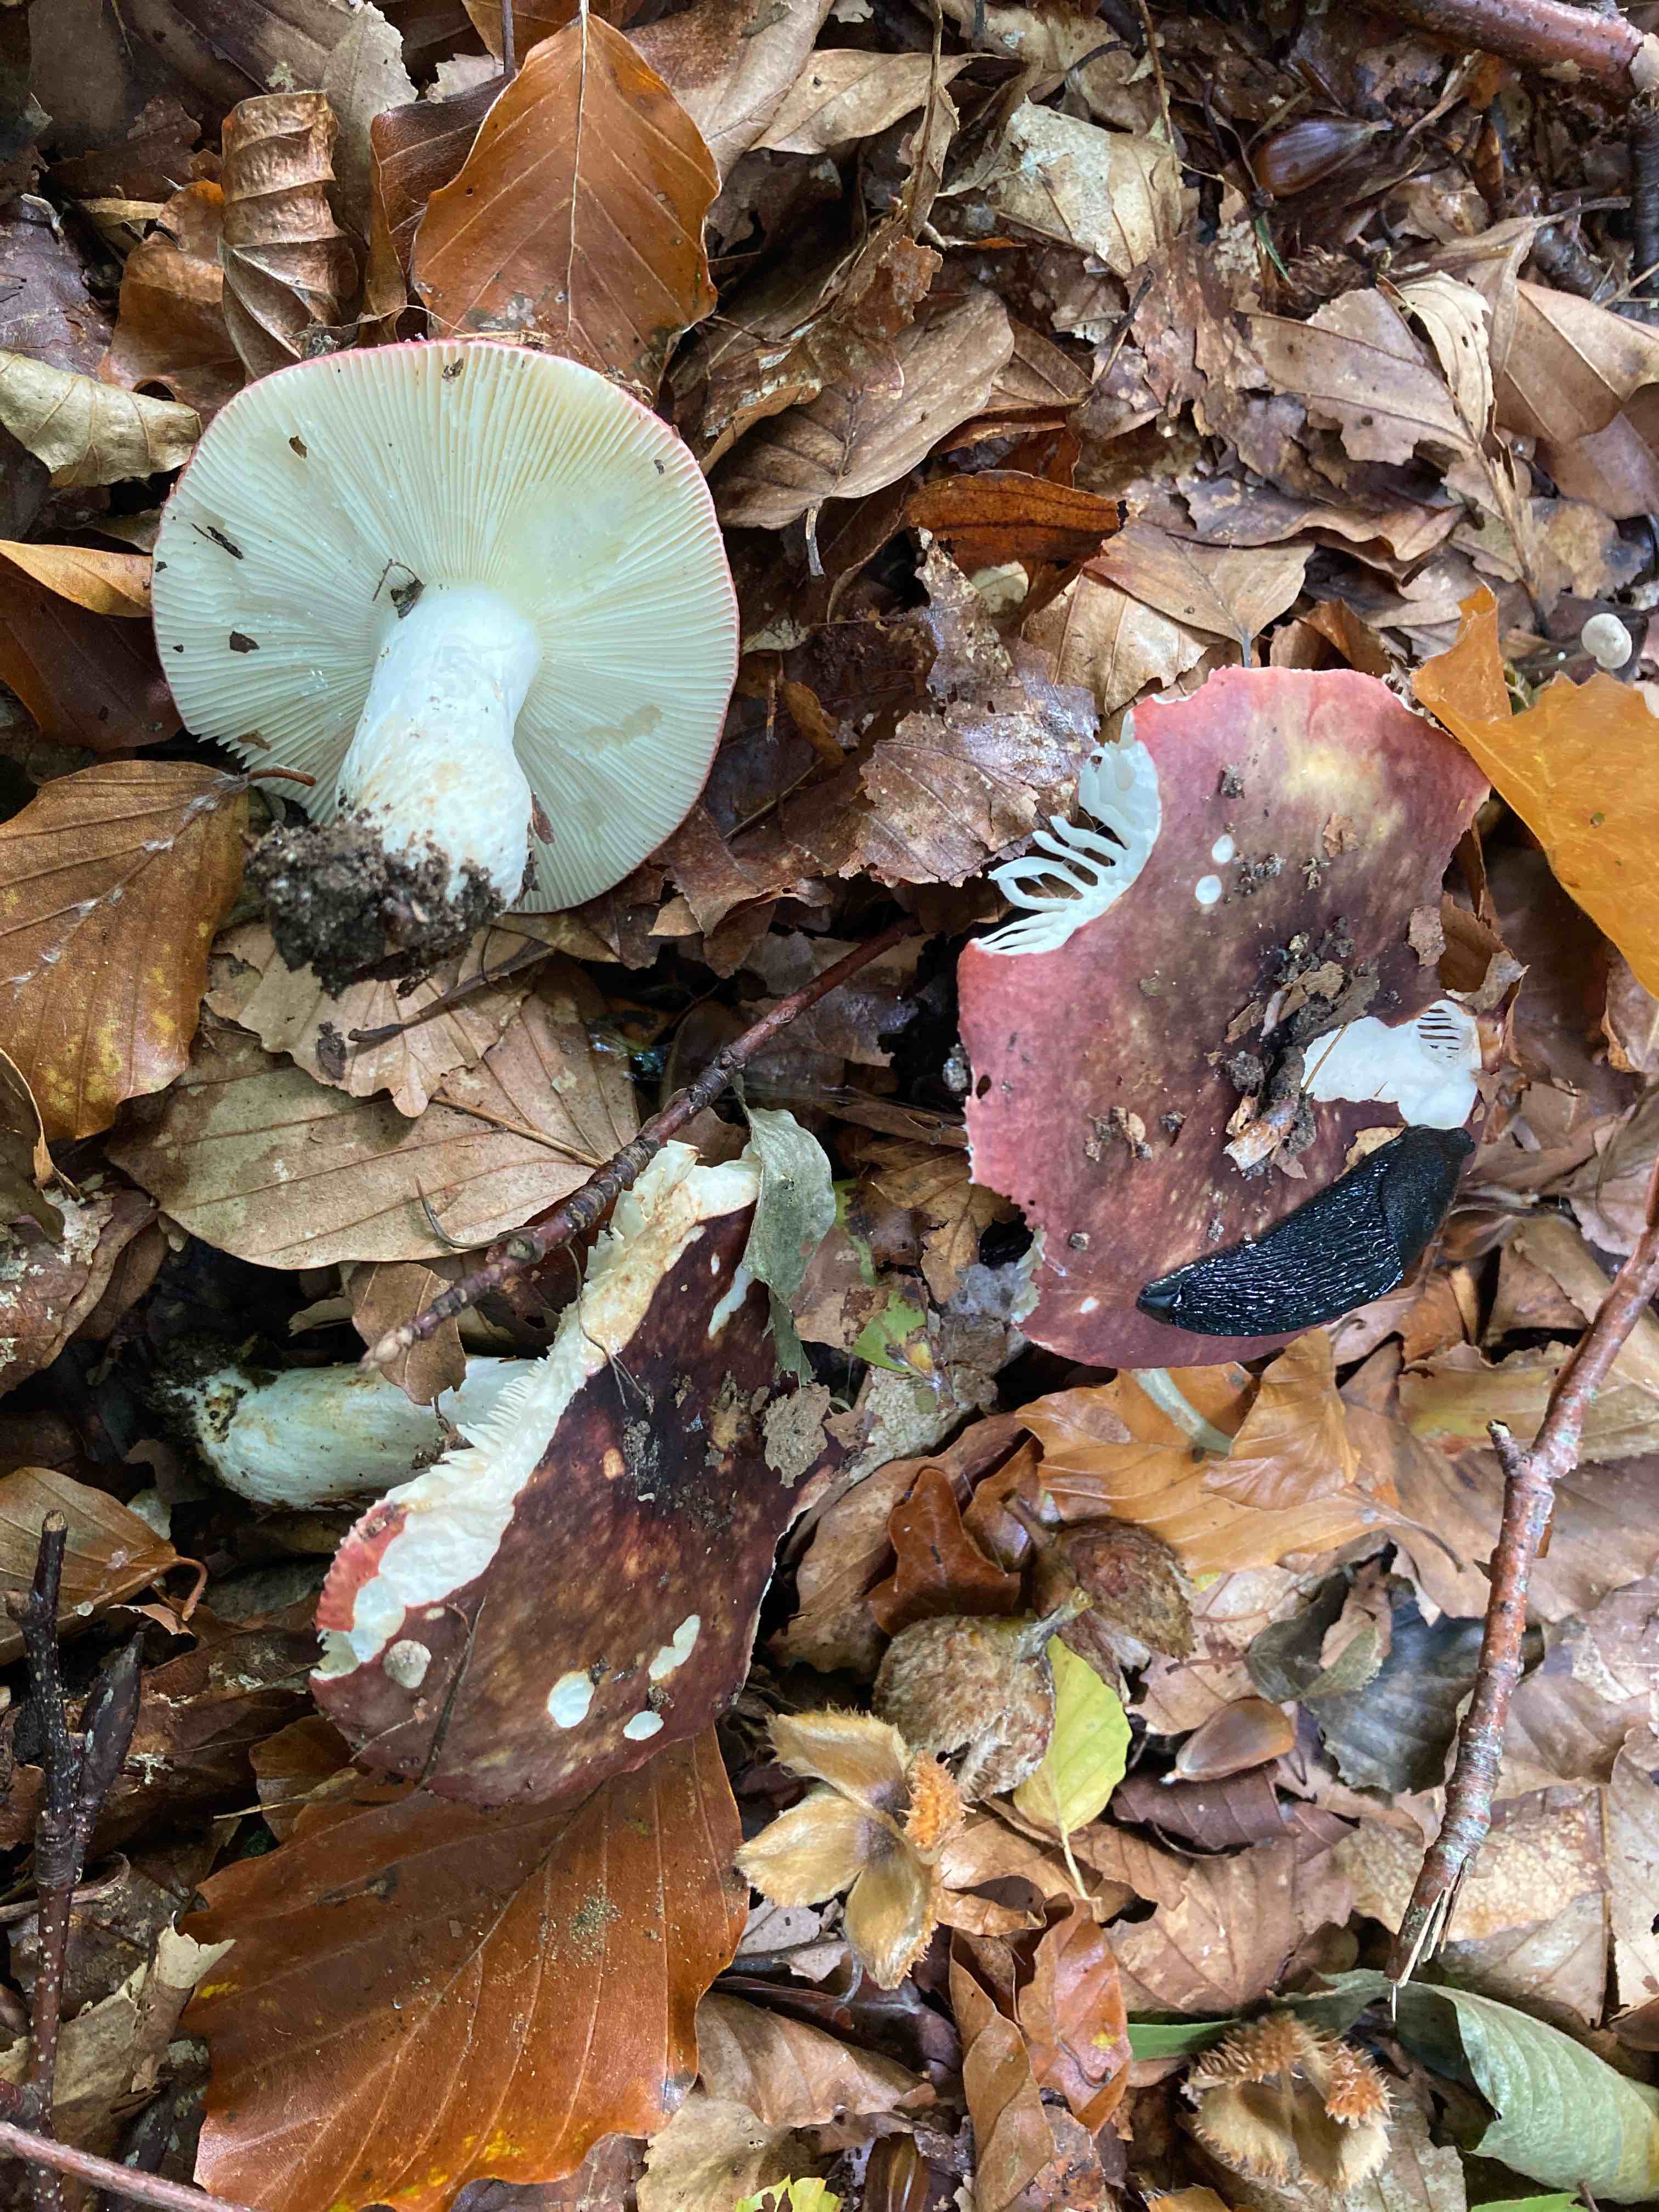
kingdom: Fungi
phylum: Basidiomycota
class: Agaricomycetes
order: Russulales
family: Russulaceae
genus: Russula
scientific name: Russula atropurpurea
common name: purpurbroget skørhat
